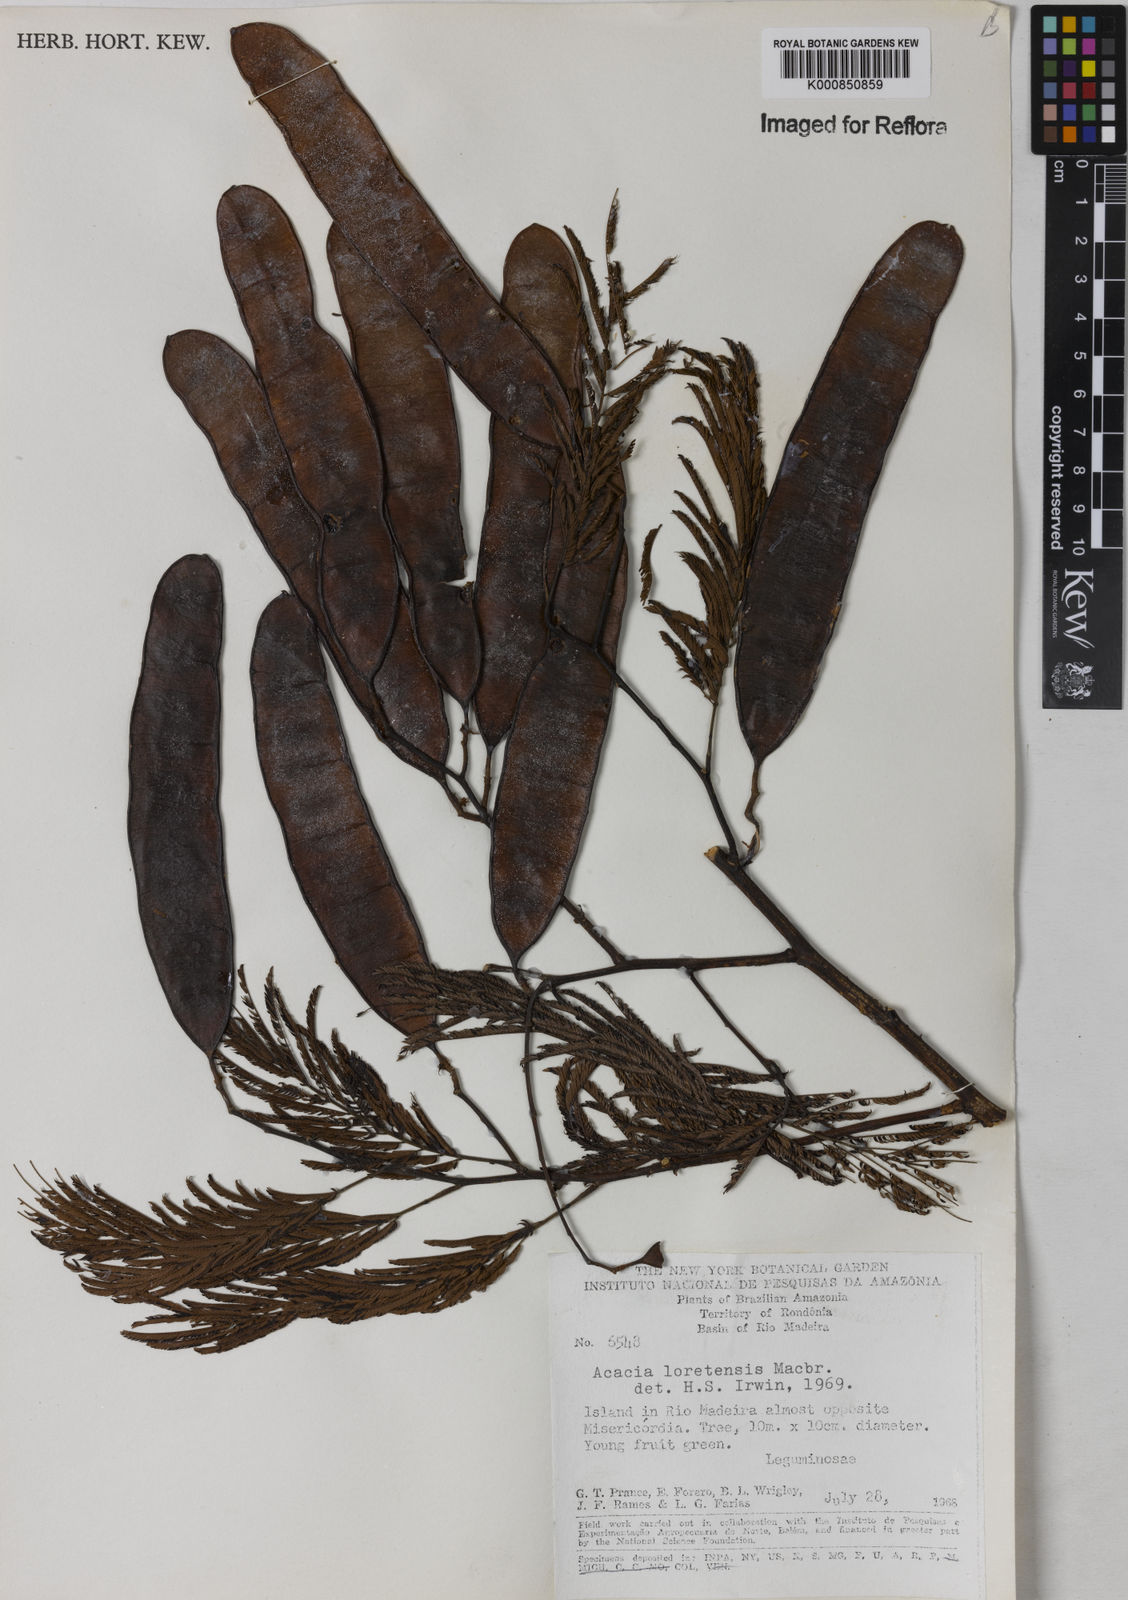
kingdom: Plantae
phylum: Tracheophyta
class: Magnoliopsida
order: Fabales
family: Fabaceae
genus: Senegalia
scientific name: Senegalia polyphylla
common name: White-tamarind
